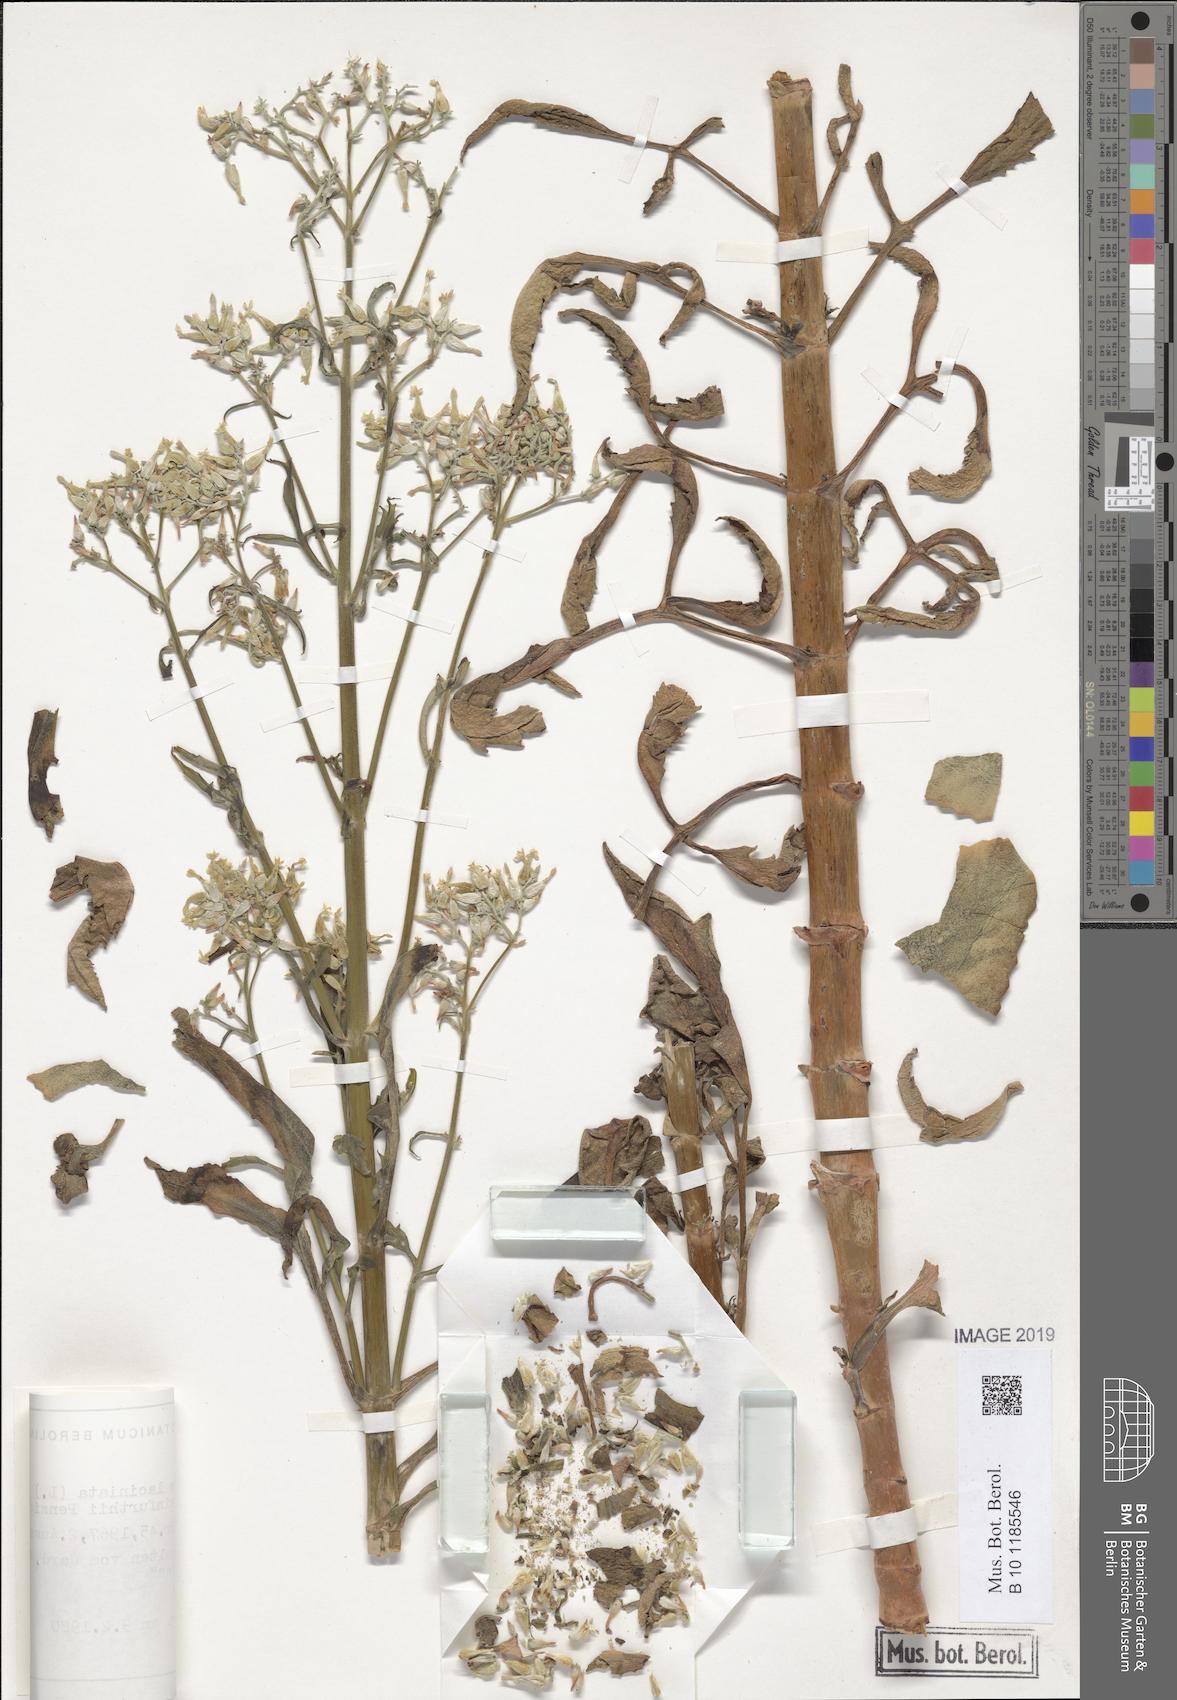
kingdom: Plantae
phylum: Tracheophyta
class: Magnoliopsida
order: Saxifragales
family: Crassulaceae
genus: Kalanchoe
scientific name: Kalanchoe laciniata
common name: Christmastree plant
